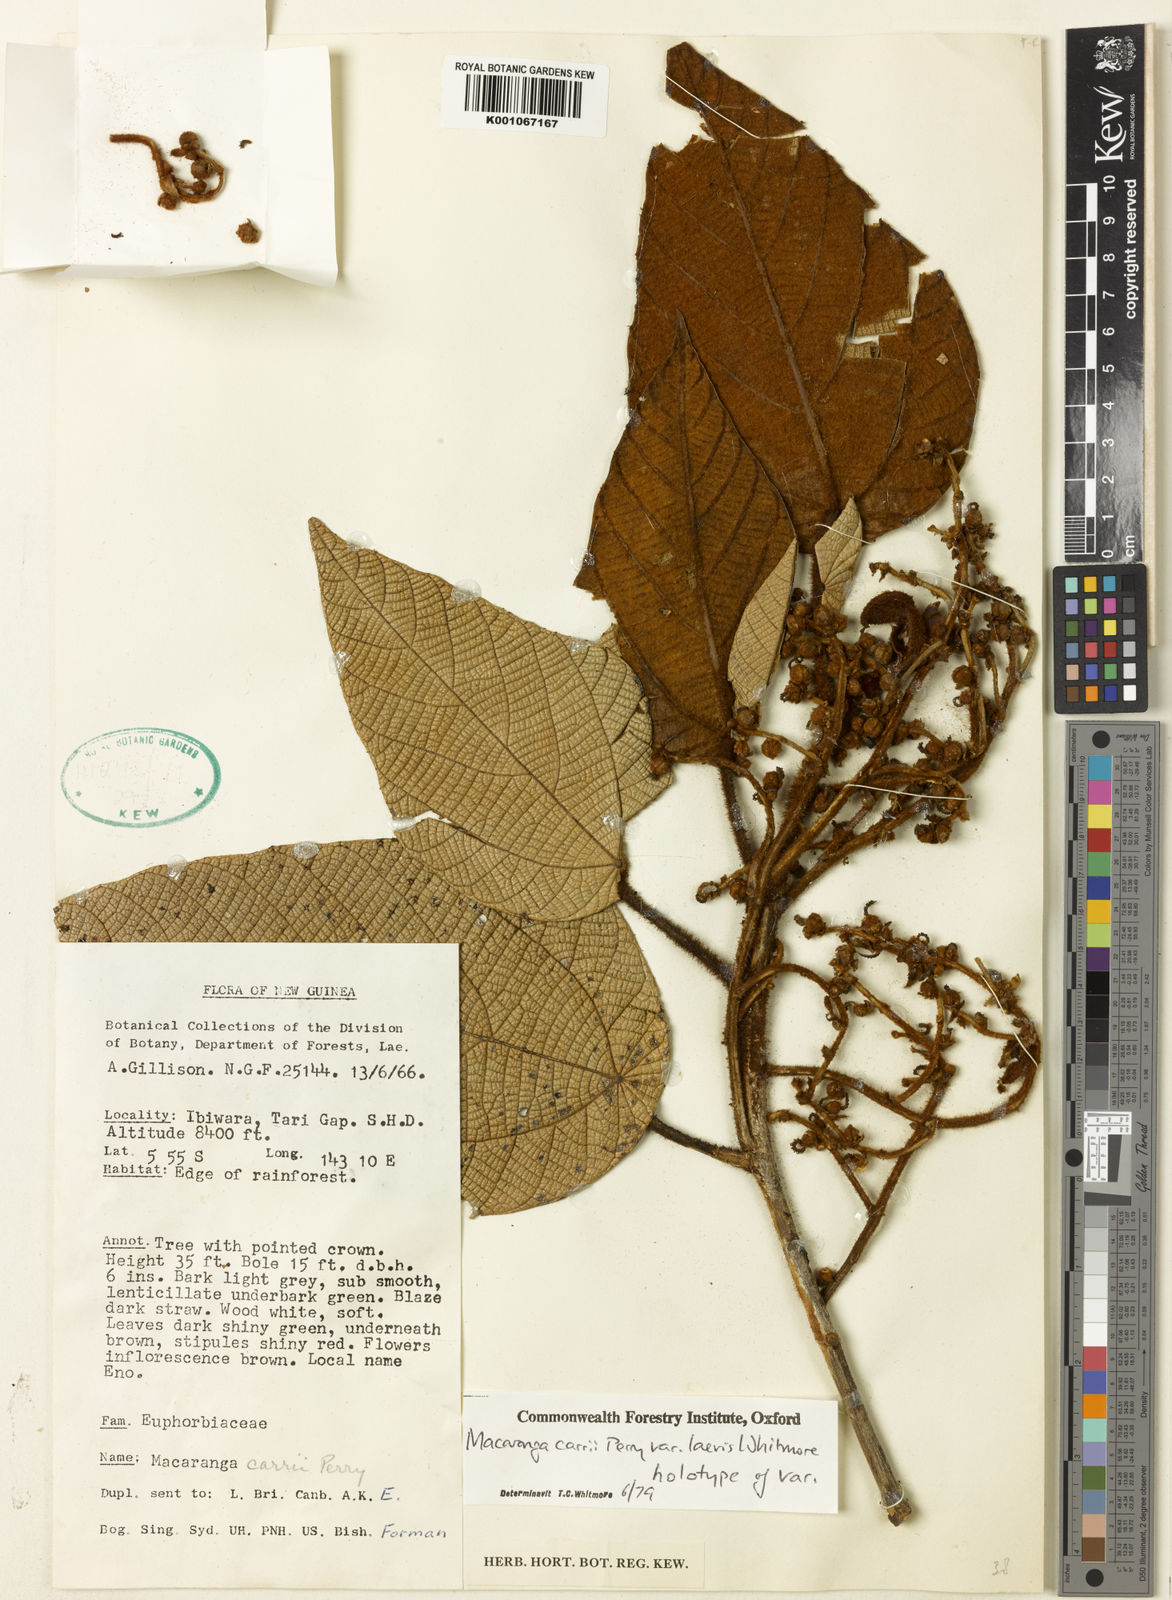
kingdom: Plantae
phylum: Tracheophyta
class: Magnoliopsida
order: Malpighiales
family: Euphorbiaceae
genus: Macaranga
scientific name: Macaranga carrii
